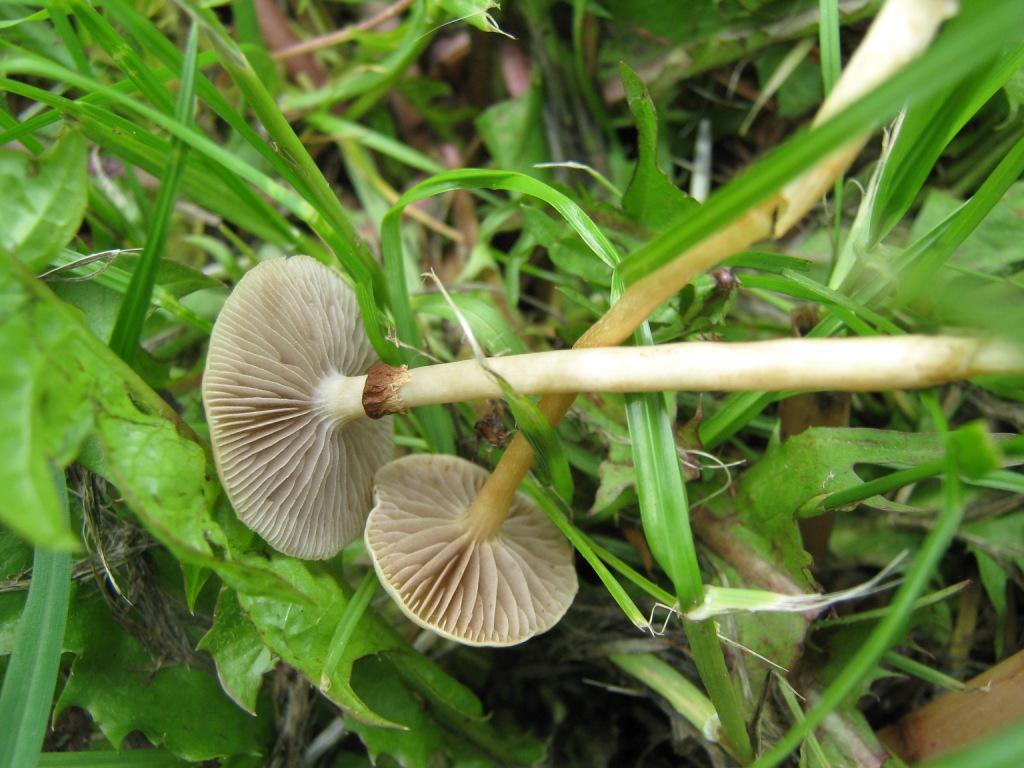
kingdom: Fungi
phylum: Basidiomycota
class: Agaricomycetes
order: Agaricales
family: Strophariaceae
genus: Agrocybe
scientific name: Agrocybe praecox
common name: tidlig agerhat
